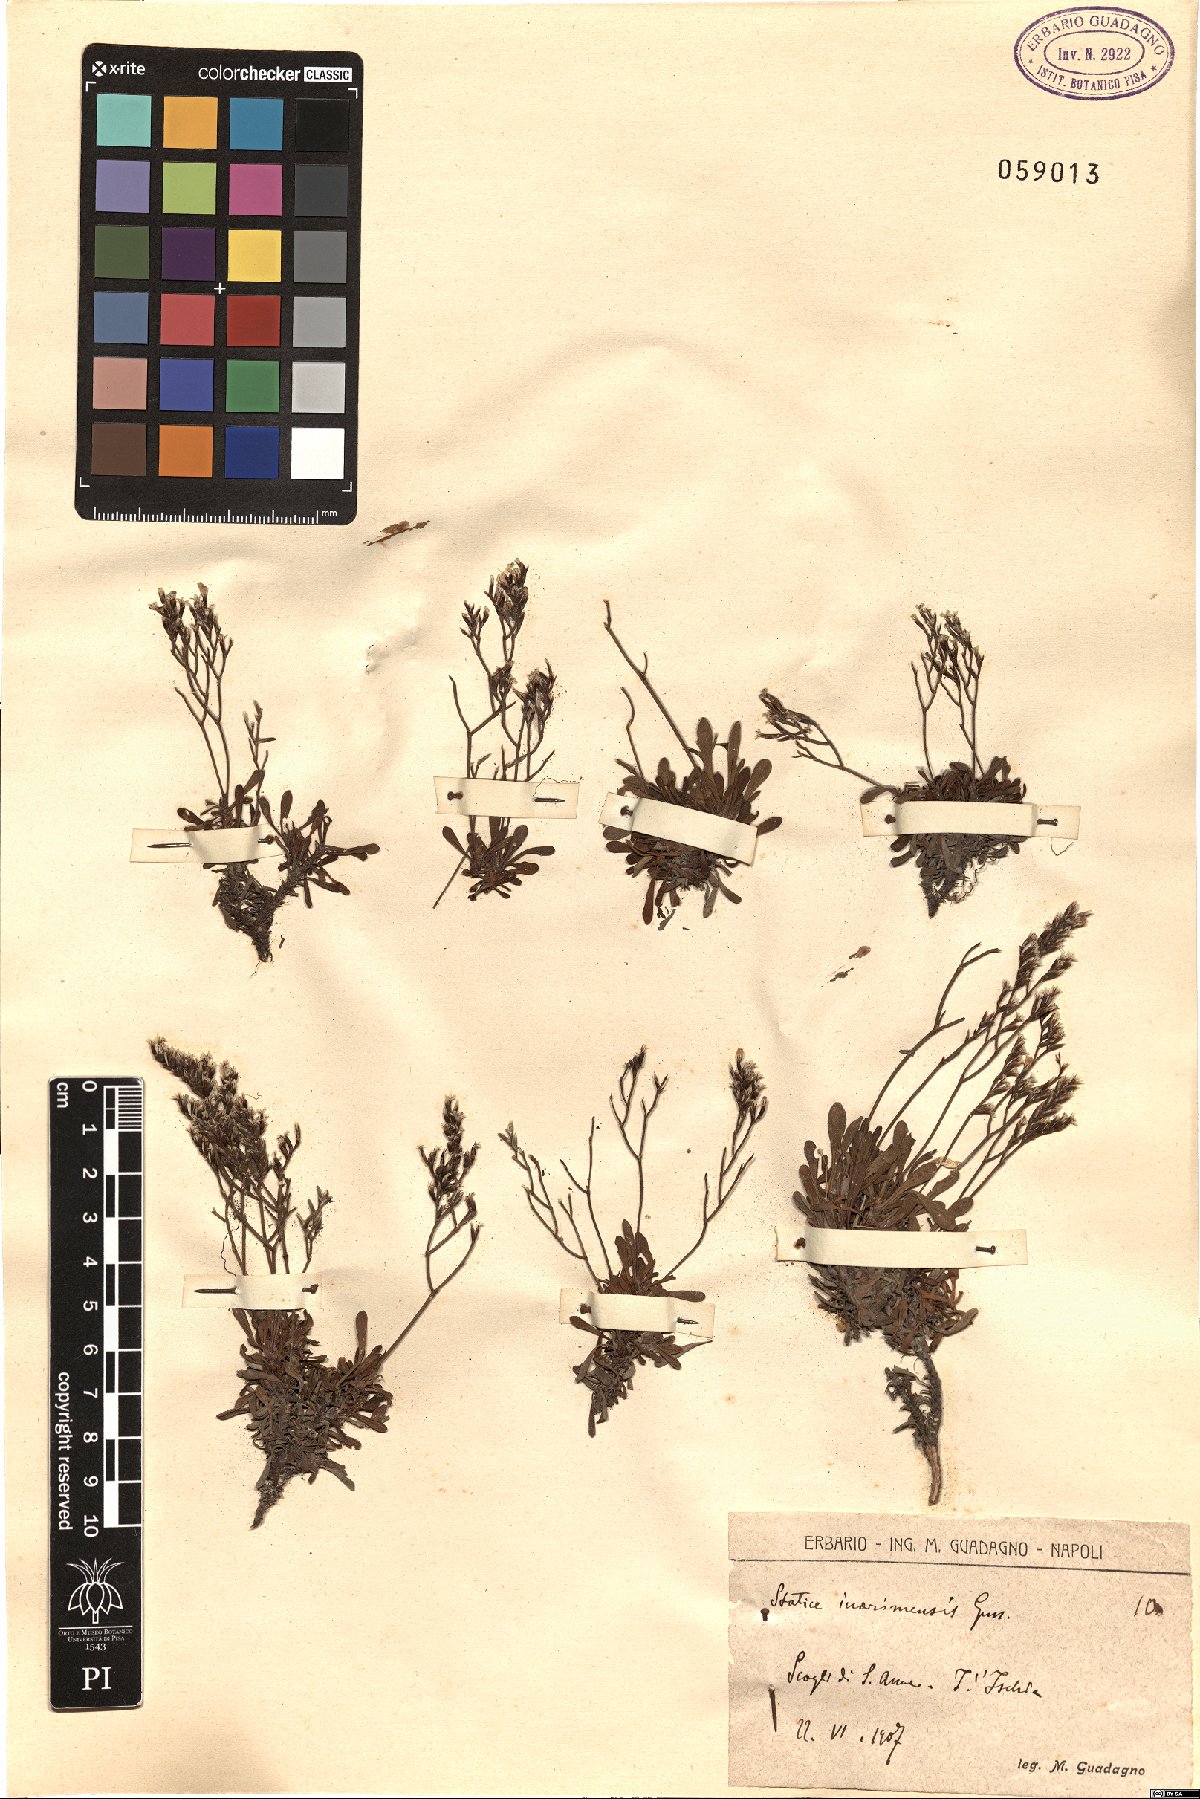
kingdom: Plantae
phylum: Tracheophyta
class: Magnoliopsida
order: Caryophyllales
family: Plumbaginaceae
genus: Limonium
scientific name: Limonium inarimense
